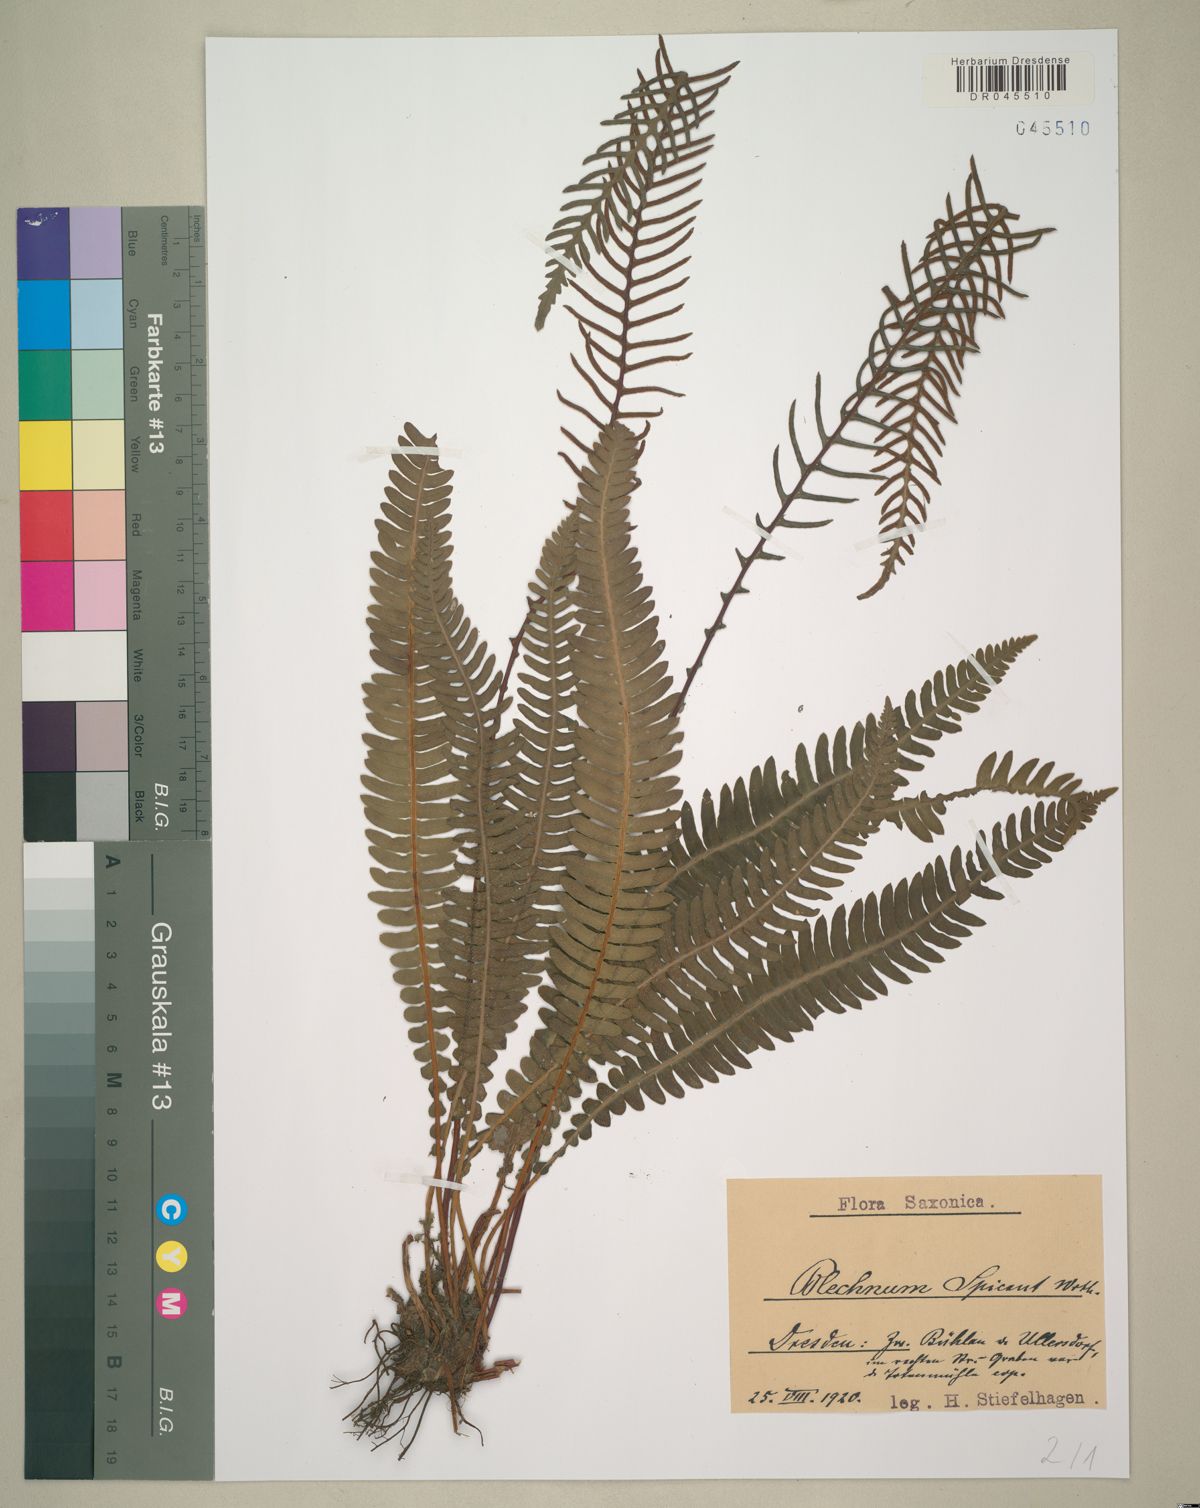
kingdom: Plantae
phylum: Tracheophyta
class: Polypodiopsida
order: Polypodiales
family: Blechnaceae
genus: Struthiopteris
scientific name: Struthiopteris spicant
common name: Deer fern
